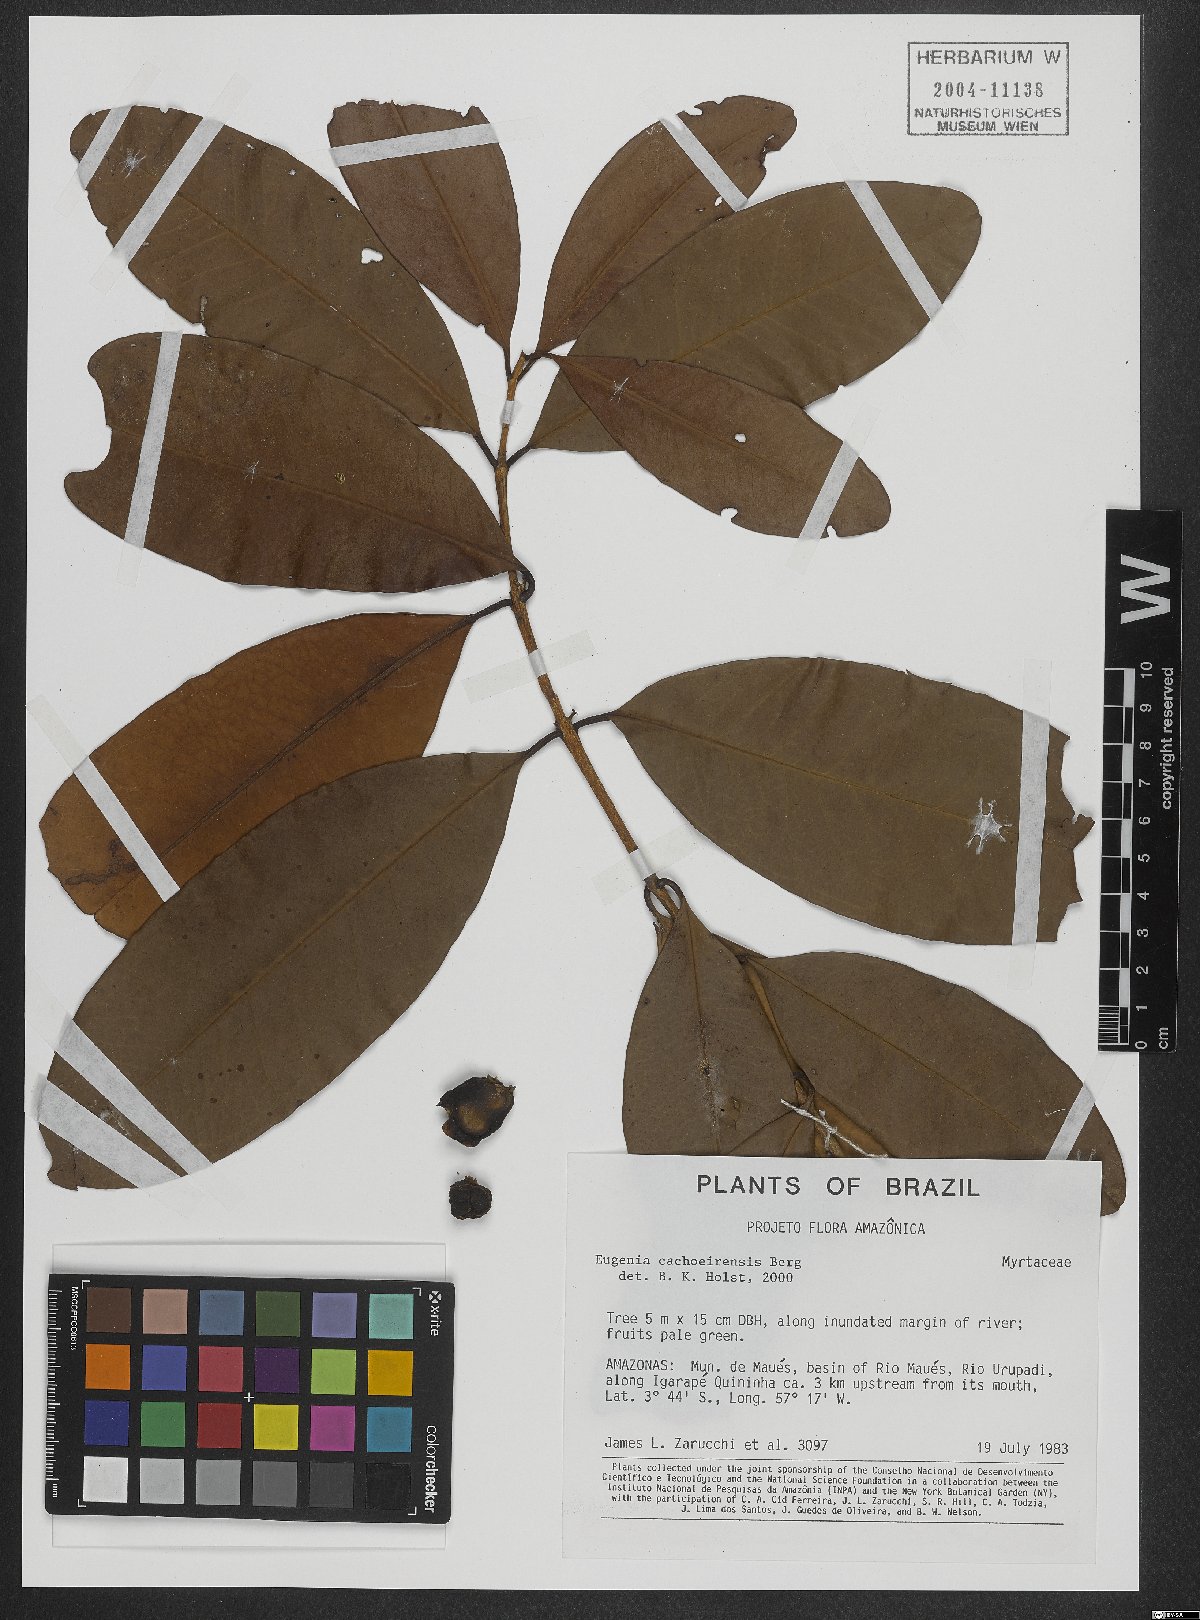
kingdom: Plantae
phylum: Tracheophyta
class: Magnoliopsida
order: Myrtales
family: Myrtaceae
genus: Eugenia
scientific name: Eugenia cachoeirensis
